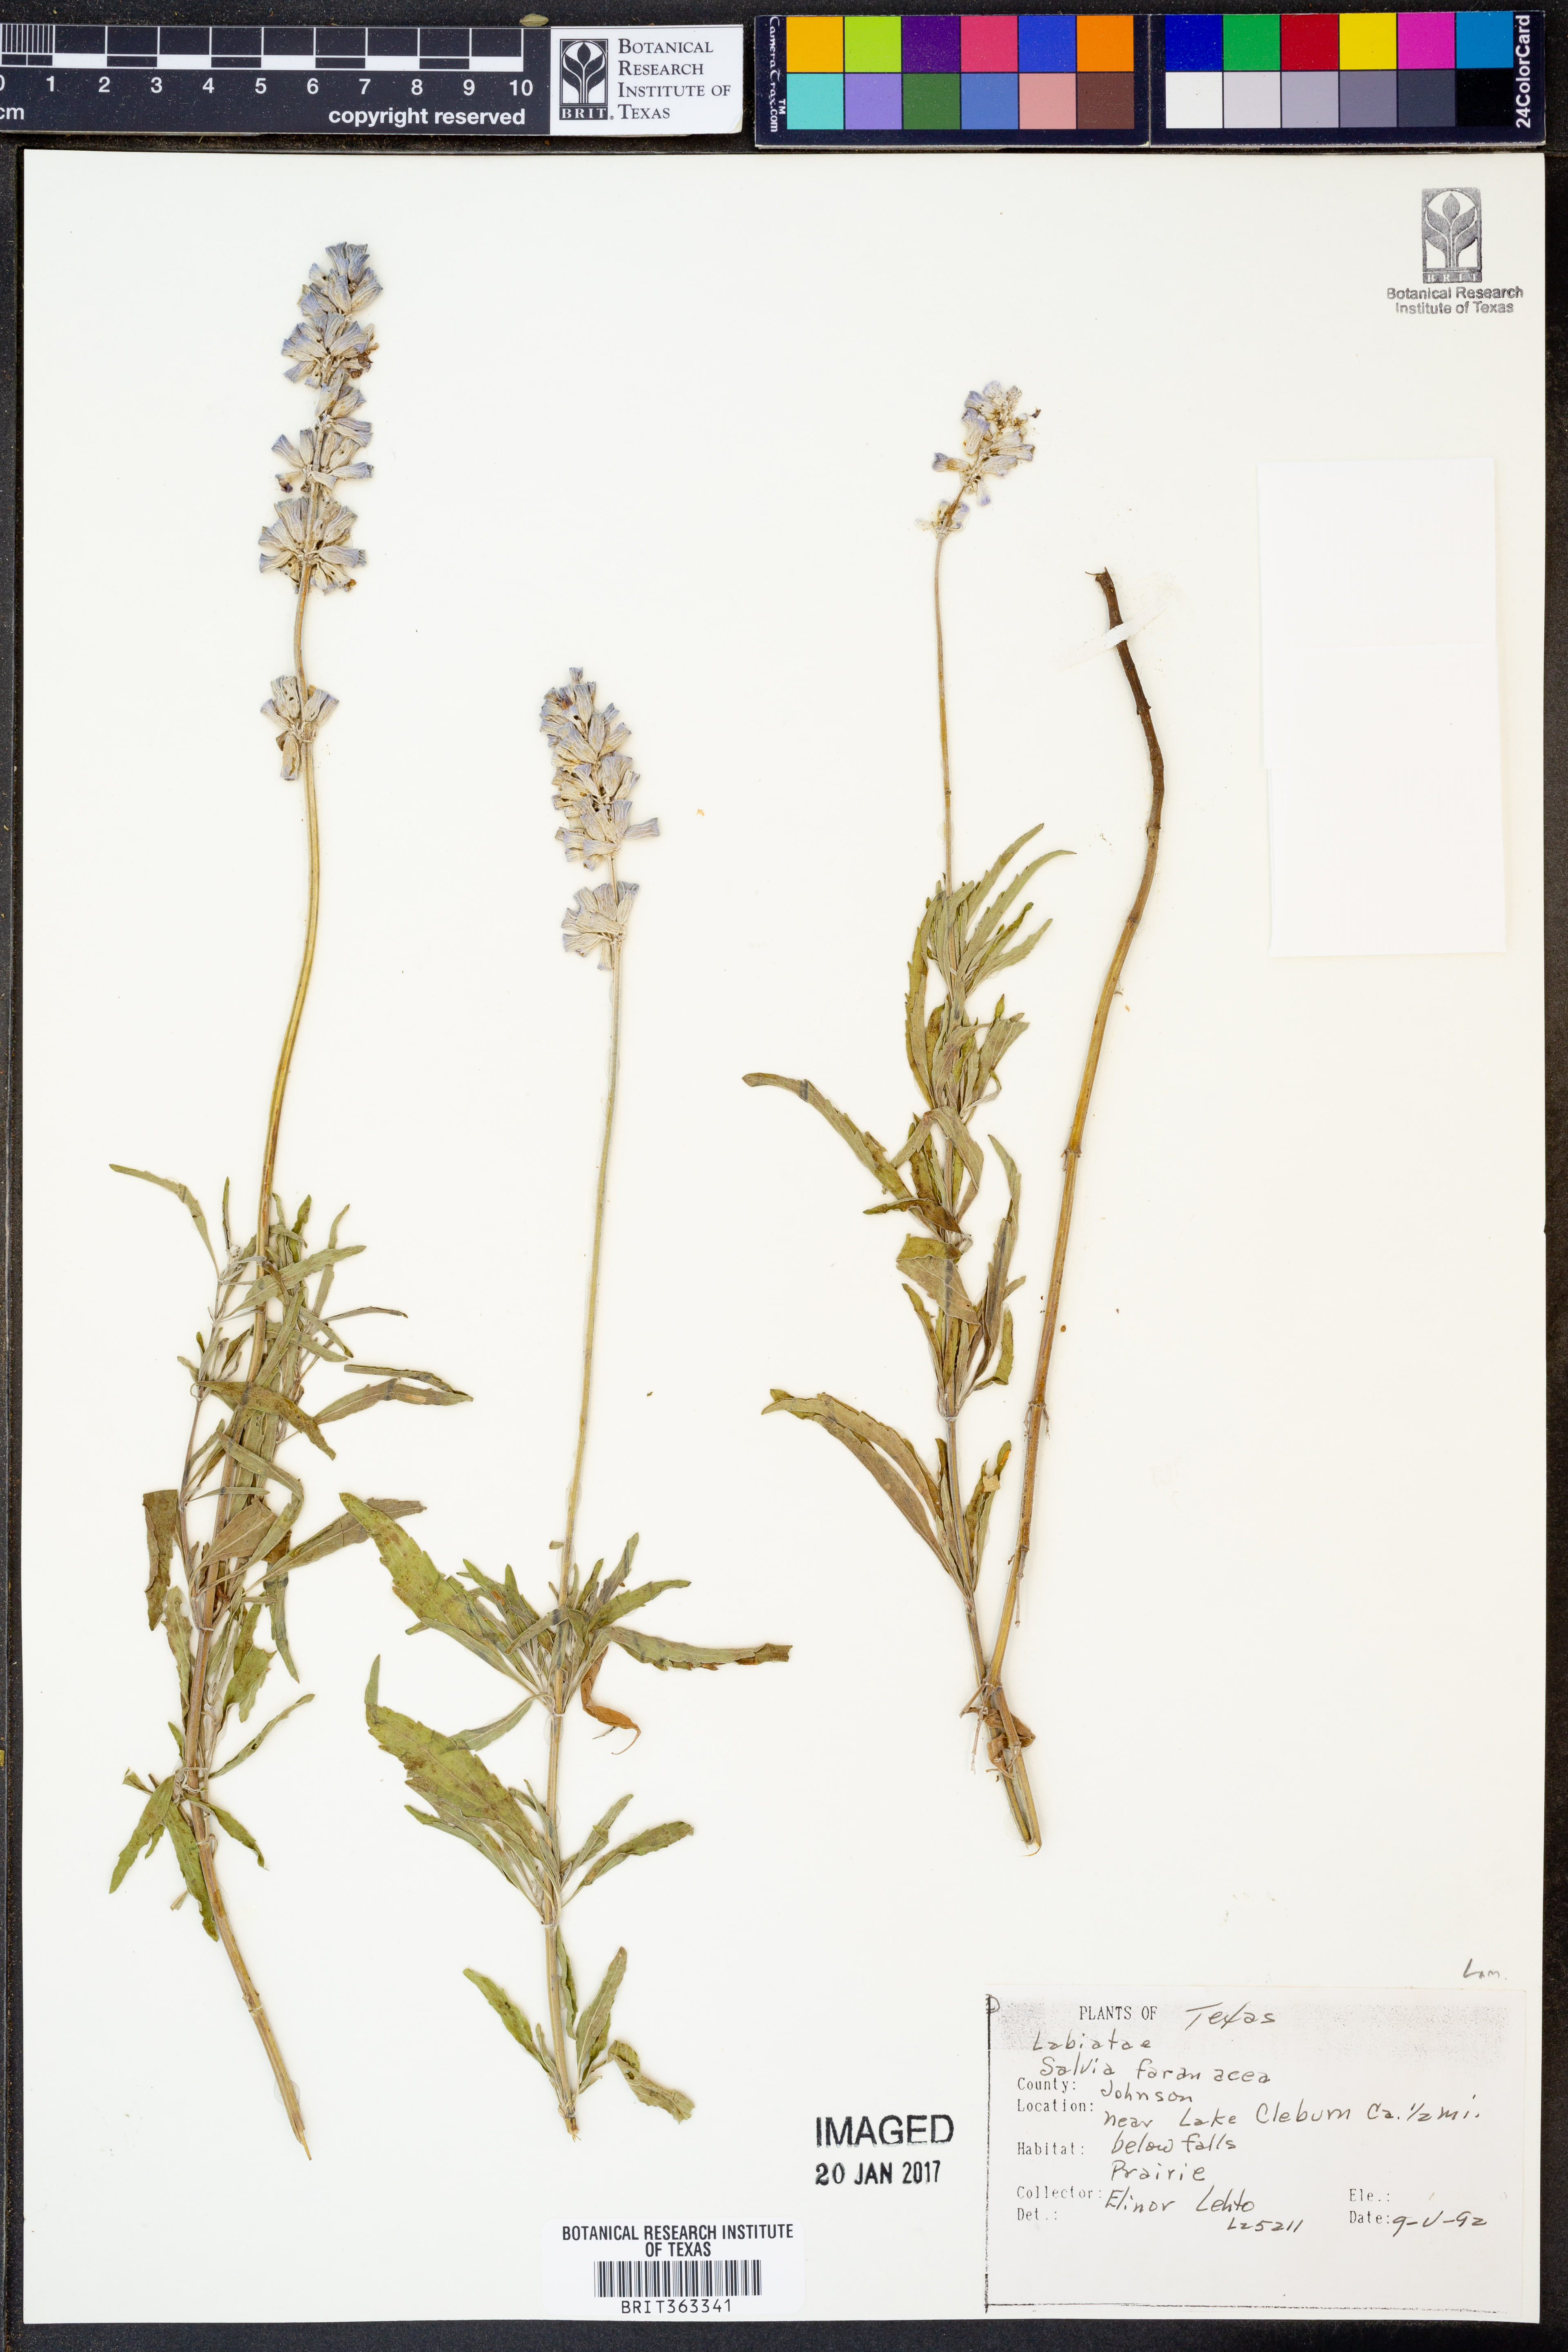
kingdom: Plantae
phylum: Tracheophyta
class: Magnoliopsida
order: Lamiales
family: Lamiaceae
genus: Salvia
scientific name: Salvia farinacea
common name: Mealy sage
